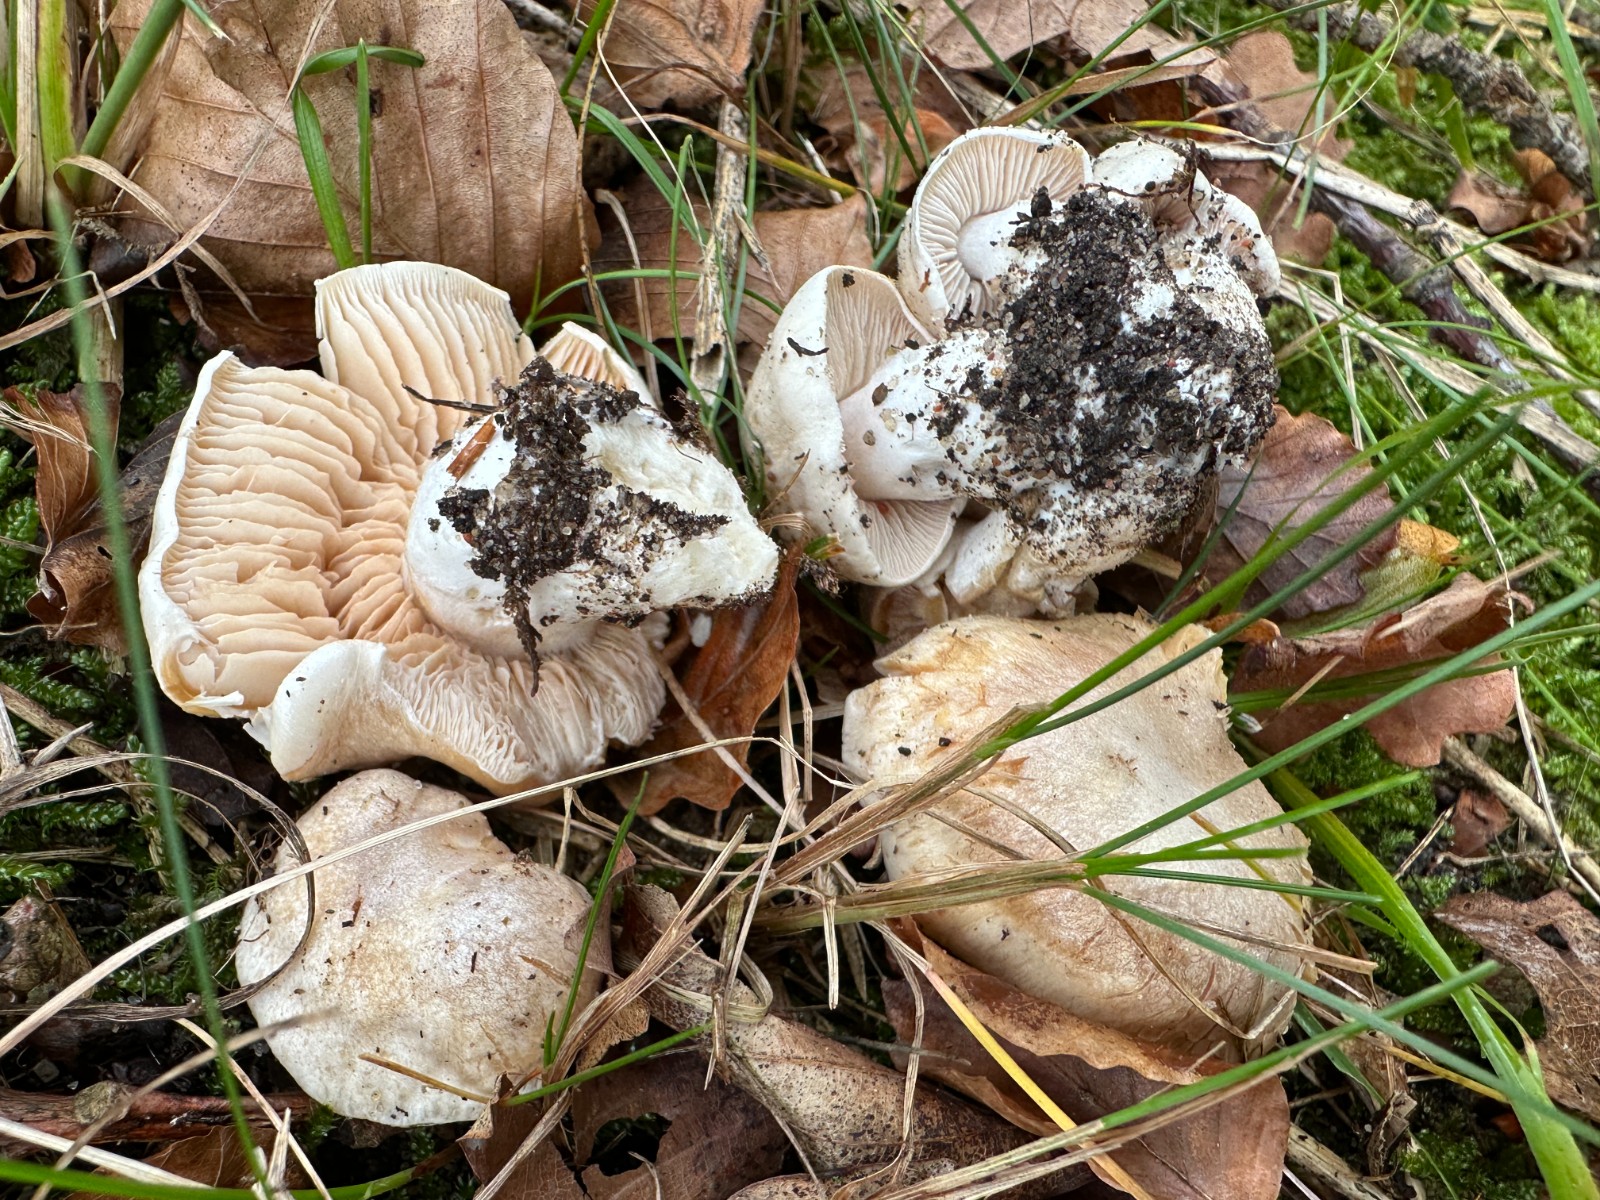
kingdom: Fungi
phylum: Basidiomycota
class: Agaricomycetes
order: Agaricales
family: Cortinariaceae
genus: Thaxterogaster
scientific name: Thaxterogaster barbatus
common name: elfenbens-slørhat
